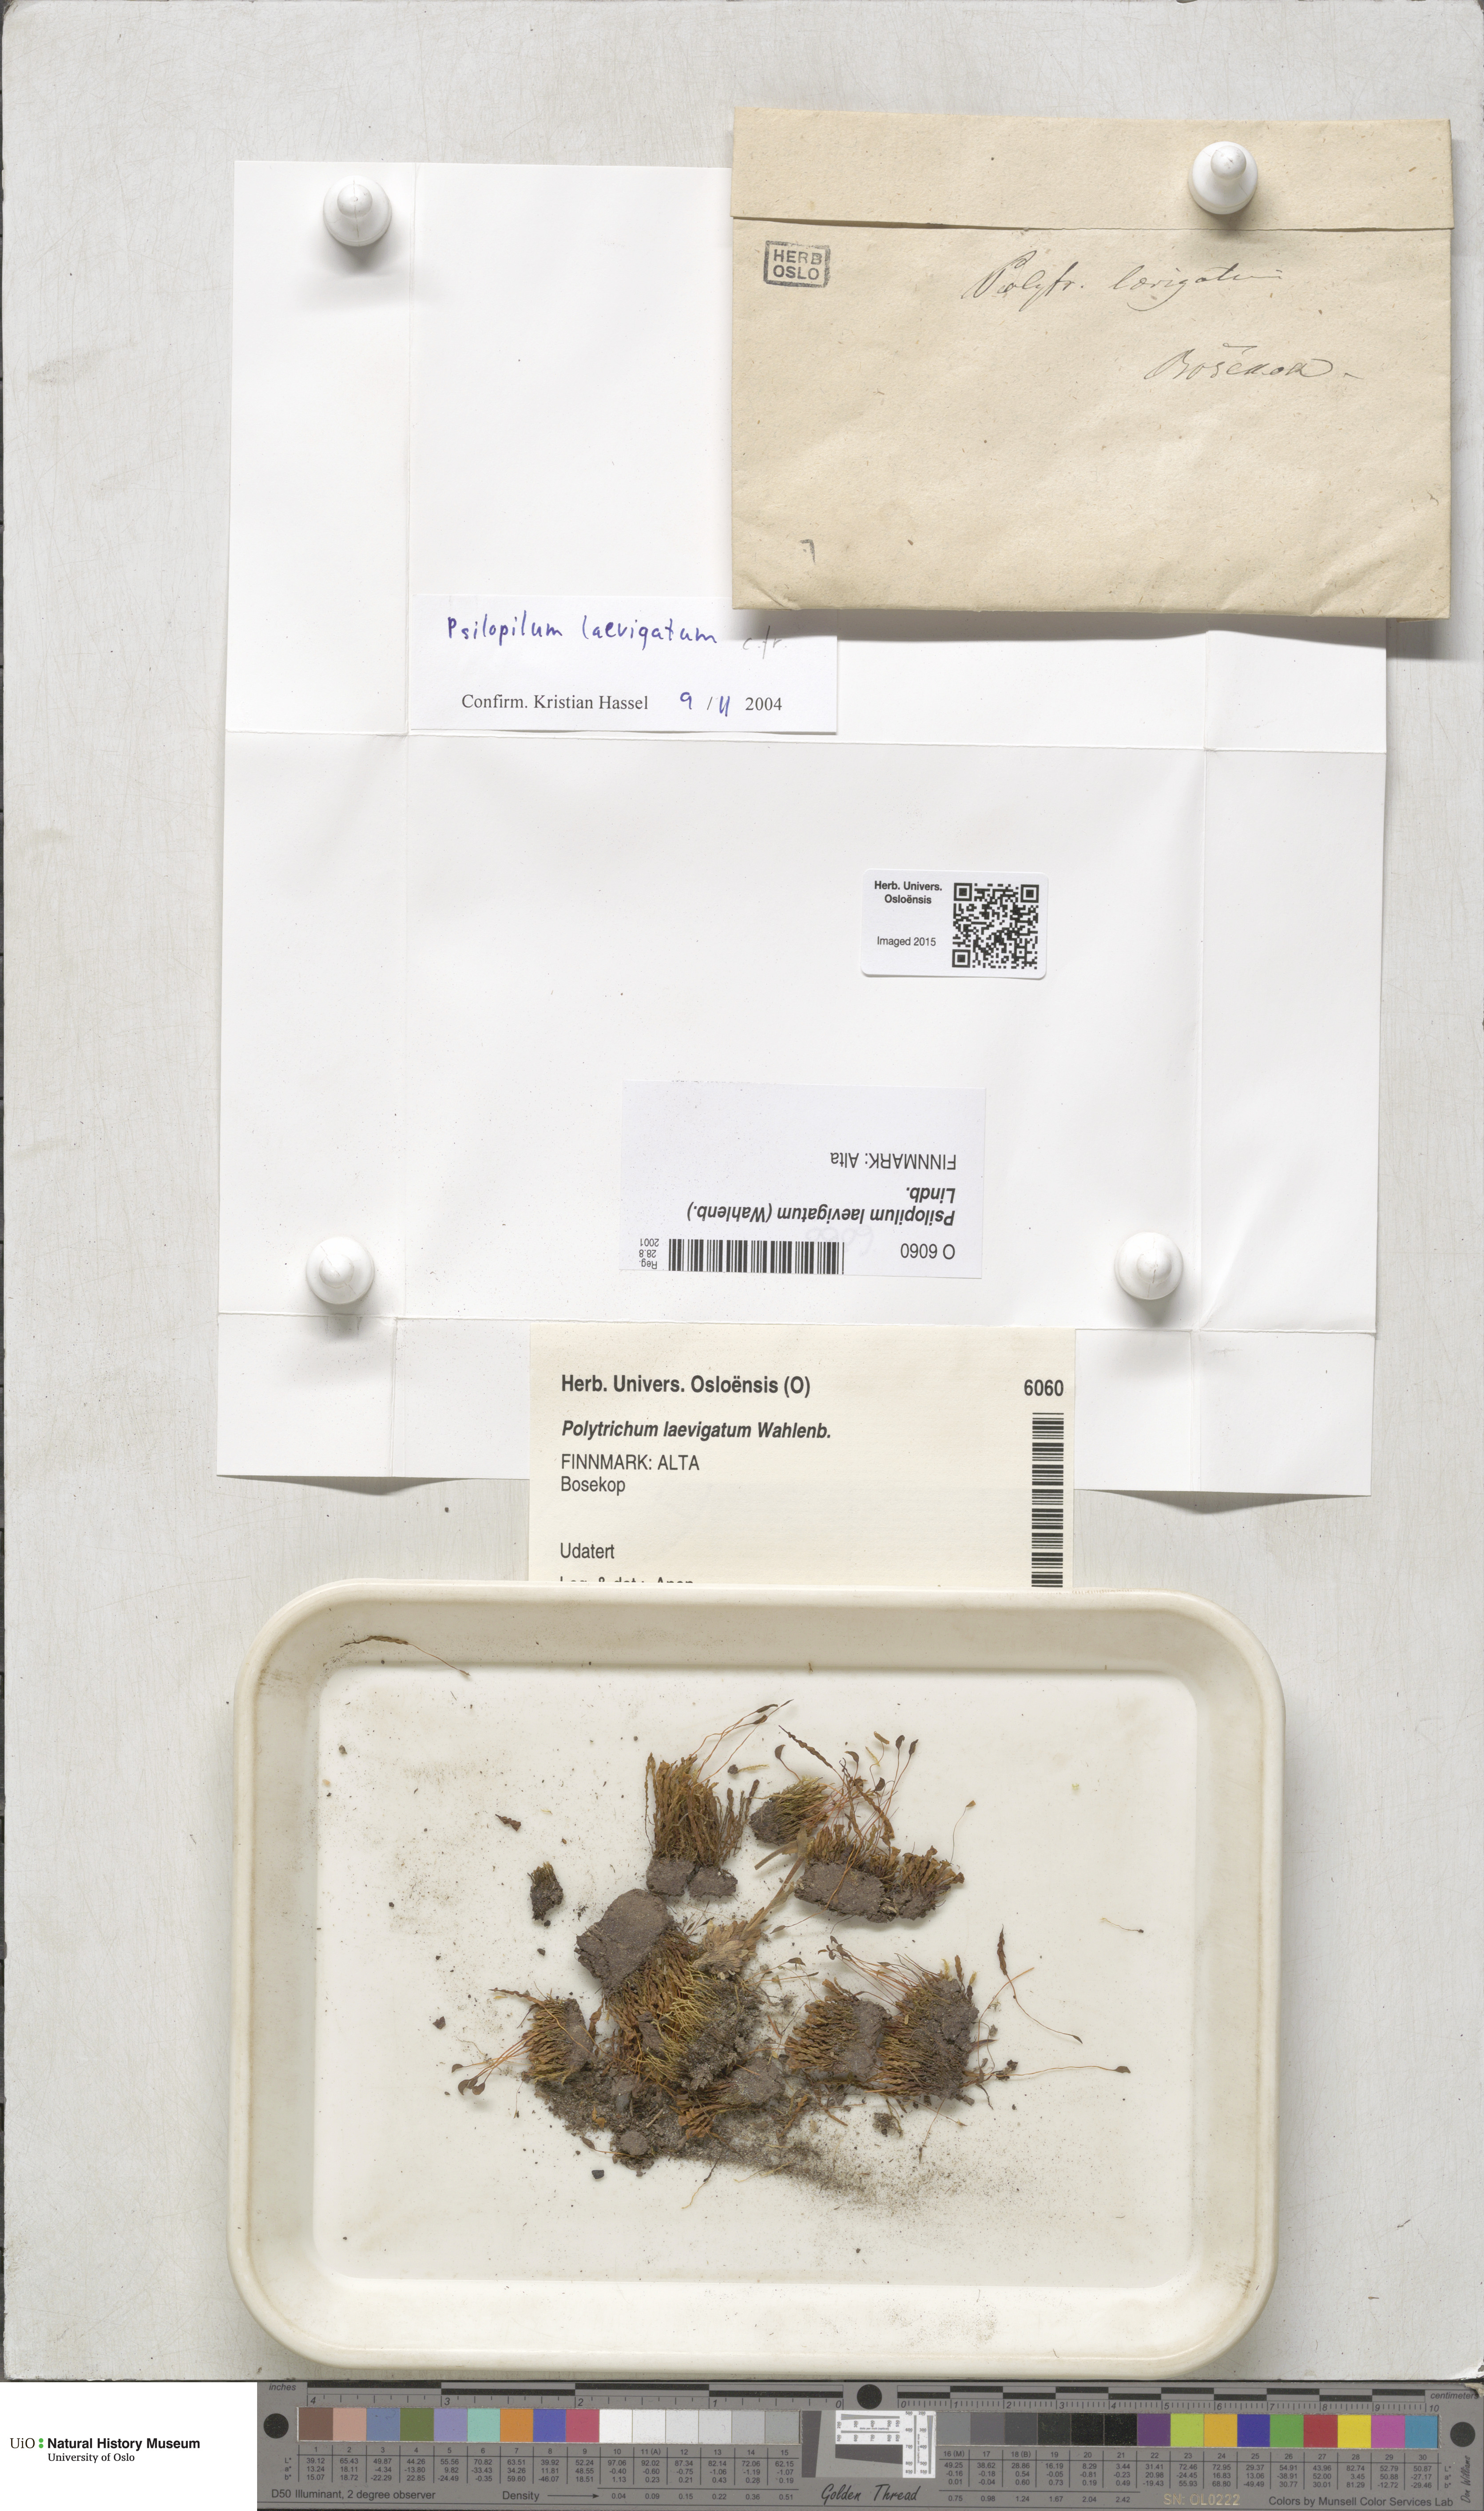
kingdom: Plantae
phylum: Bryophyta
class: Polytrichopsida
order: Polytrichales
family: Polytrichaceae
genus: Psilopilum
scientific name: Psilopilum laevigatum
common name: Large wolverine moss
